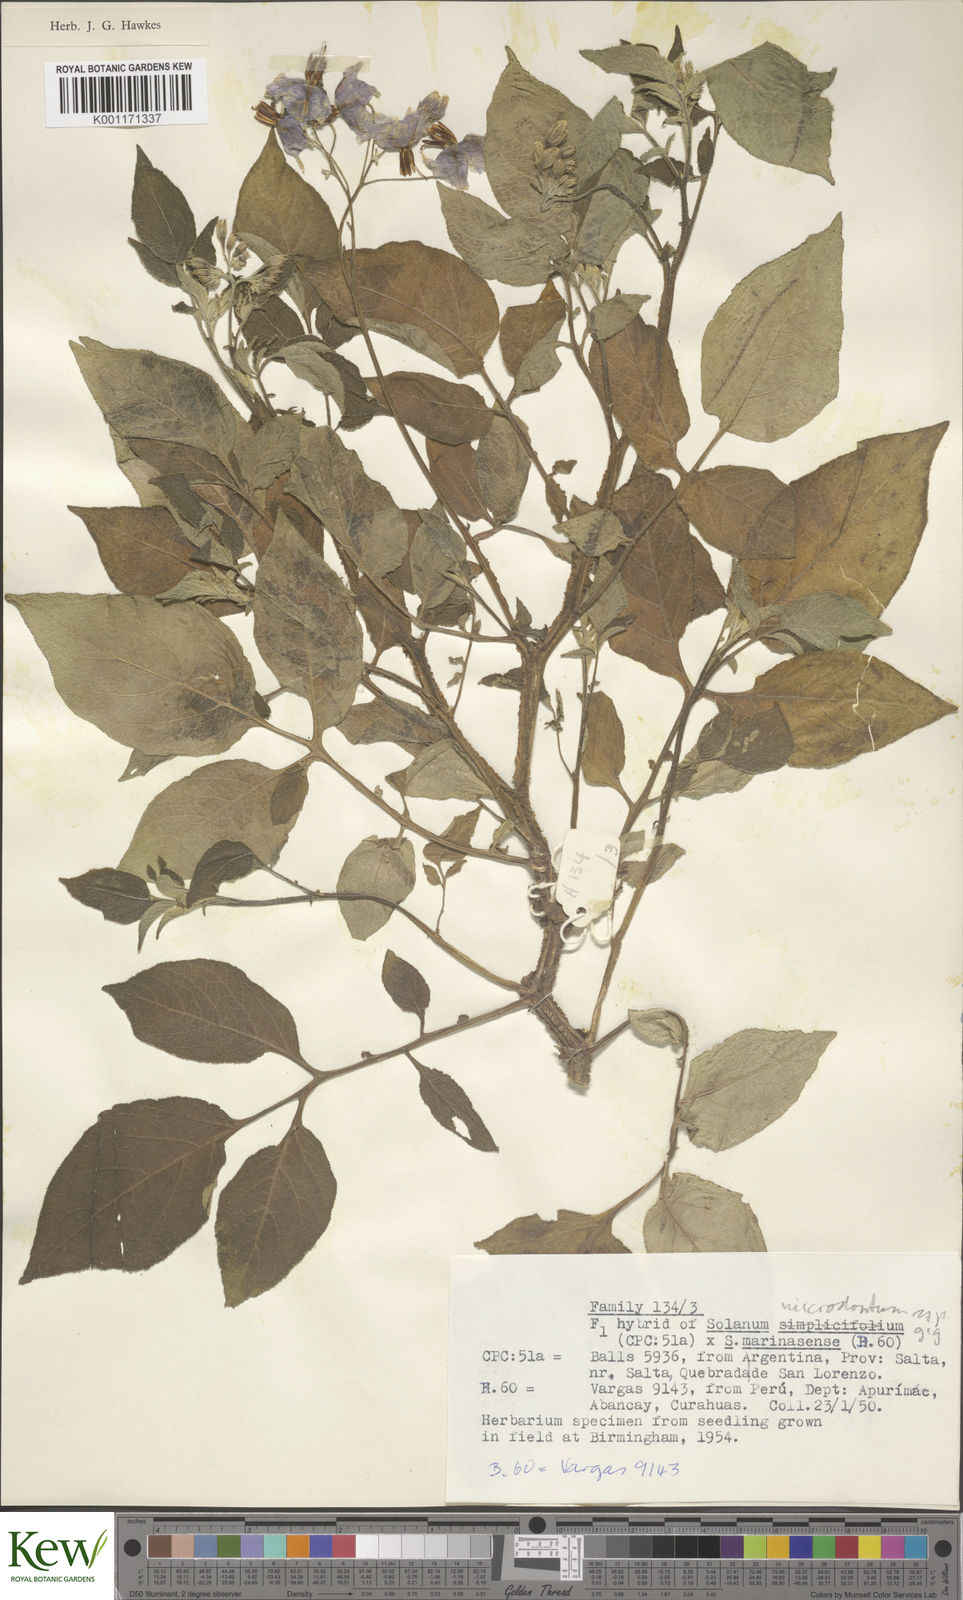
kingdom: Plantae
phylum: Tracheophyta
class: Magnoliopsida
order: Solanales
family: Solanaceae
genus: Solanum
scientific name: Solanum microdontum
